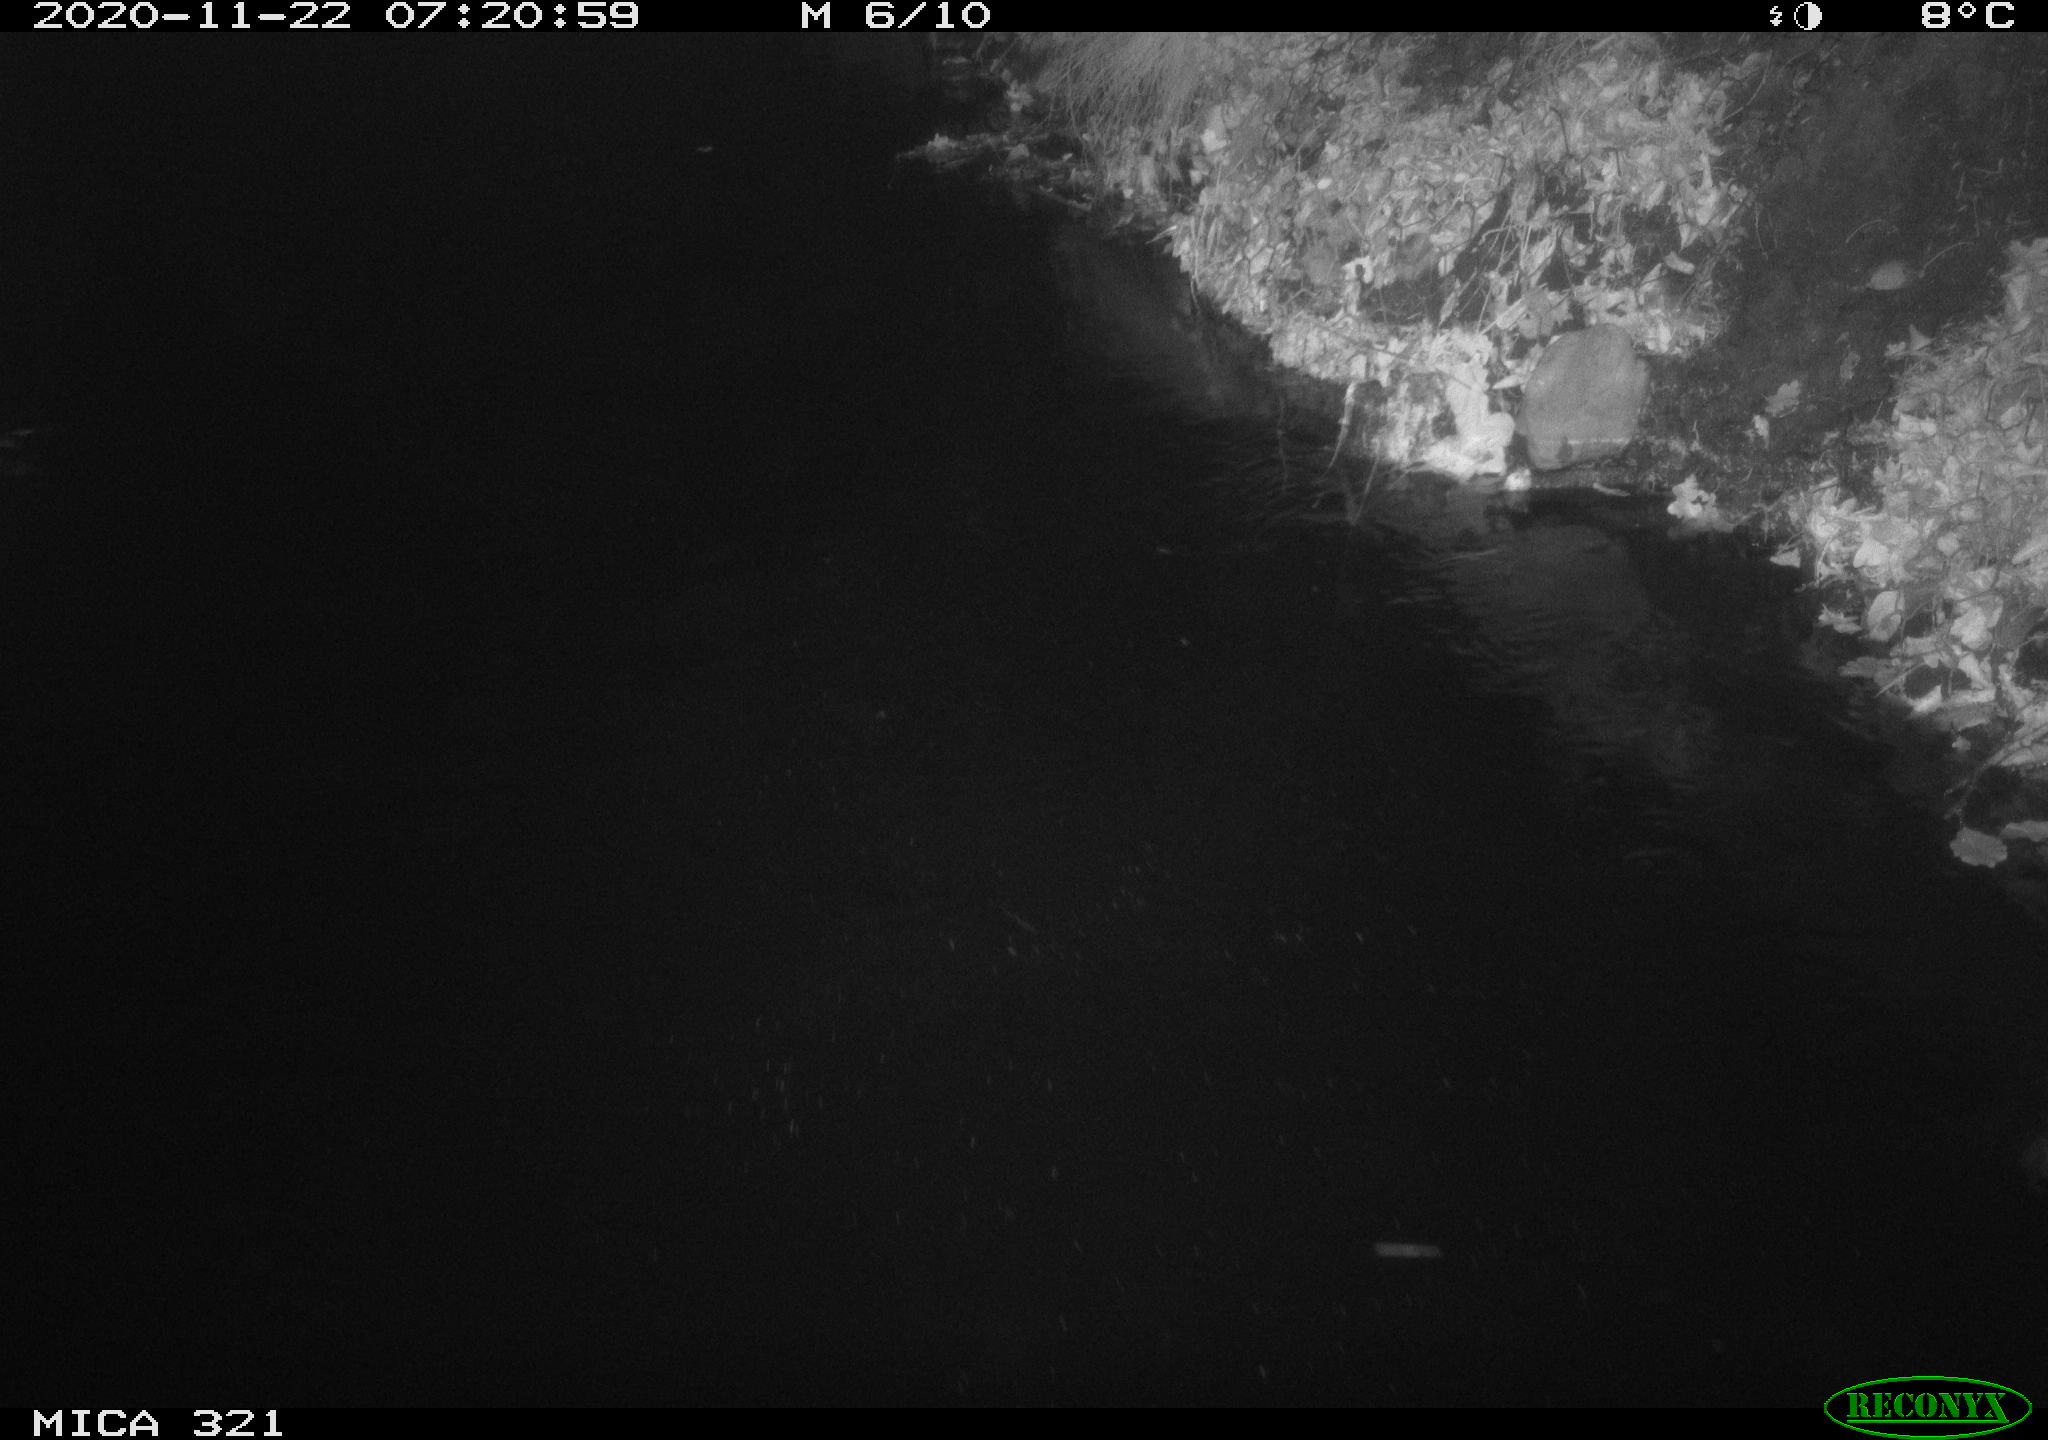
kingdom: Animalia
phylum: Chordata
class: Aves
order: Anseriformes
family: Anatidae
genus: Anas
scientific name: Anas platyrhynchos
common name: Mallard
